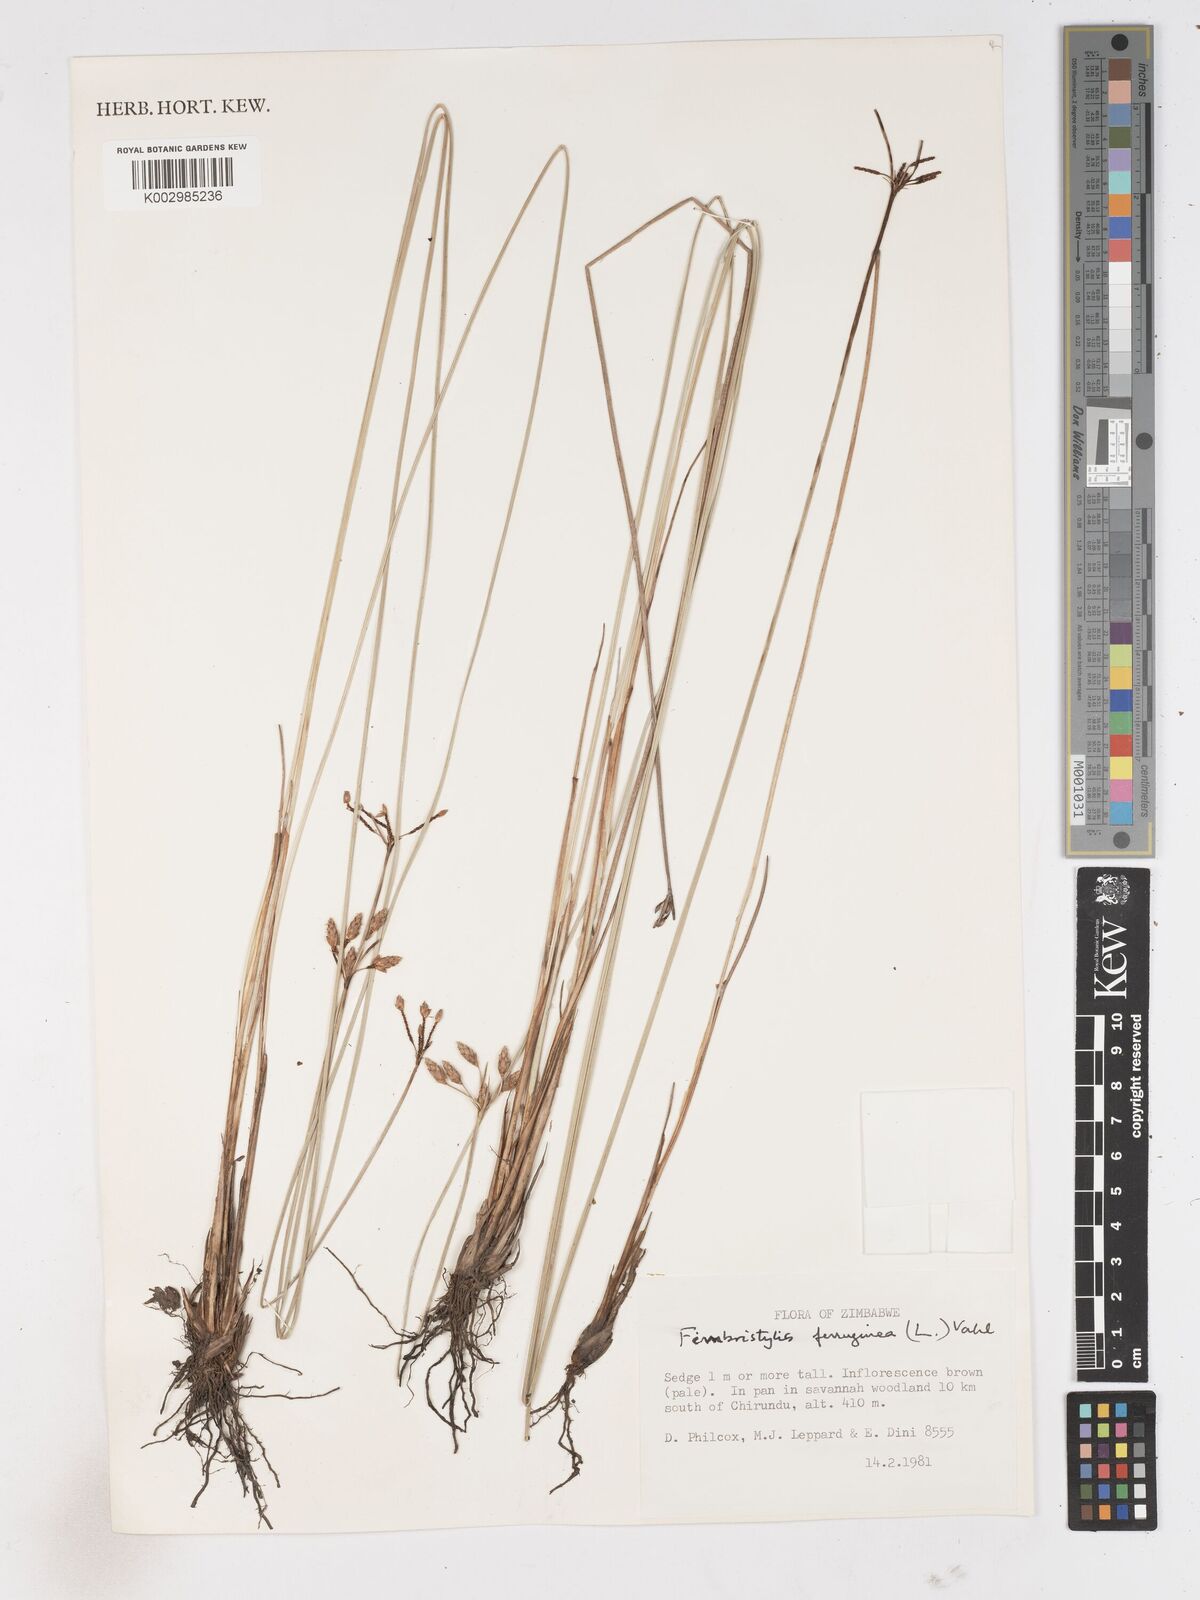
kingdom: Plantae
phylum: Tracheophyta
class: Liliopsida
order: Poales
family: Cyperaceae
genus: Fimbristylis
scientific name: Fimbristylis
